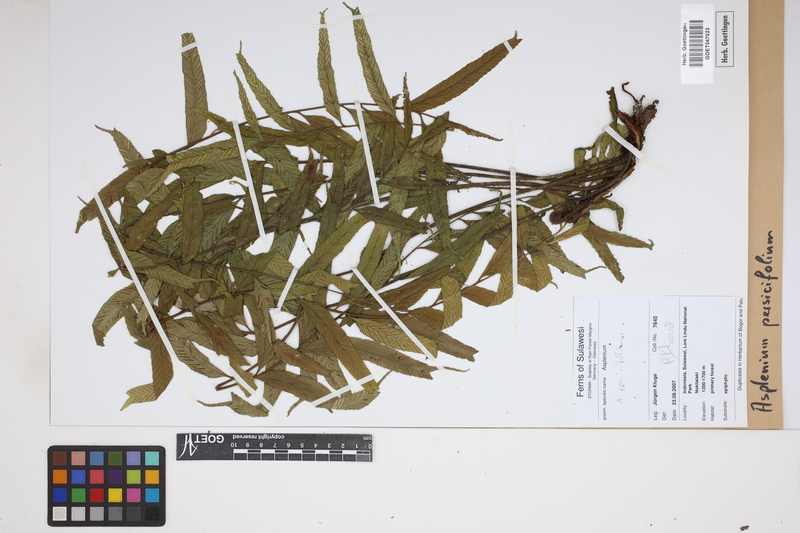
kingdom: Plantae
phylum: Tracheophyta
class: Polypodiopsida
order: Polypodiales
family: Aspleniaceae
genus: Asplenium
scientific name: Asplenium persicifolium
